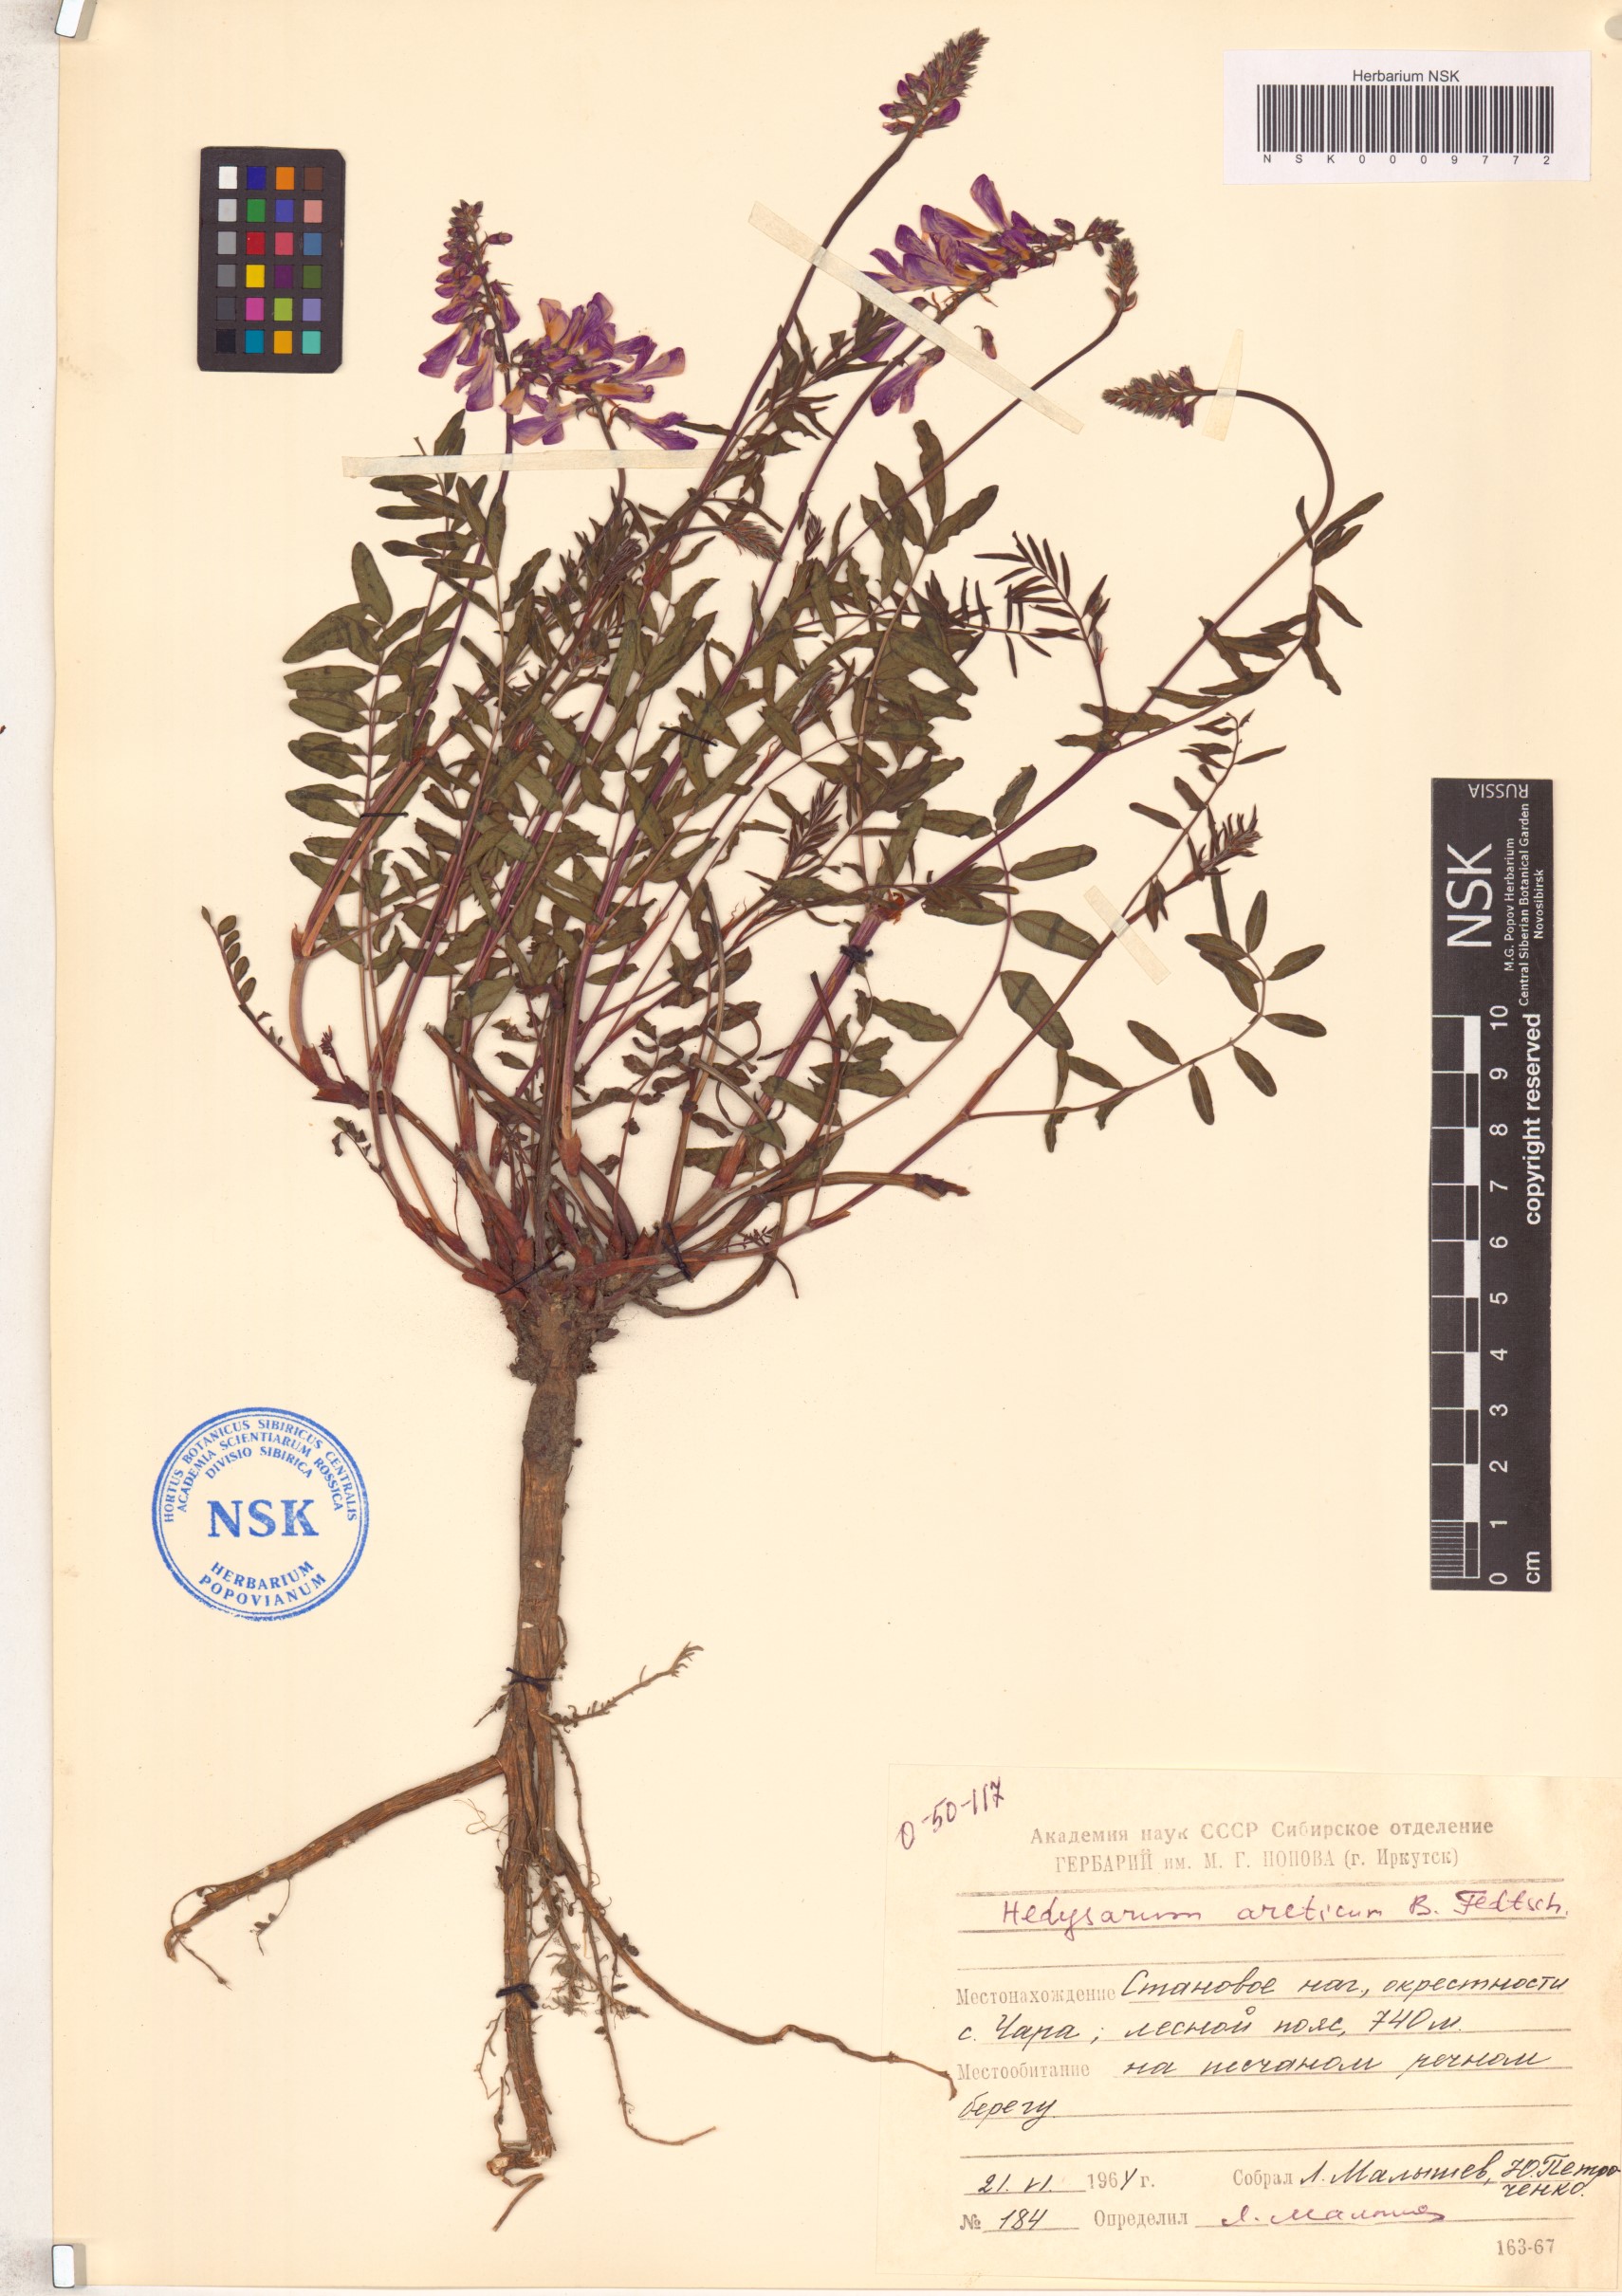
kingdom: Plantae
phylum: Tracheophyta
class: Magnoliopsida
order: Fabales
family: Fabaceae
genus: Hedysarum
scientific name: Hedysarum hedysaroides
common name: Alpine french-honeysuckle
